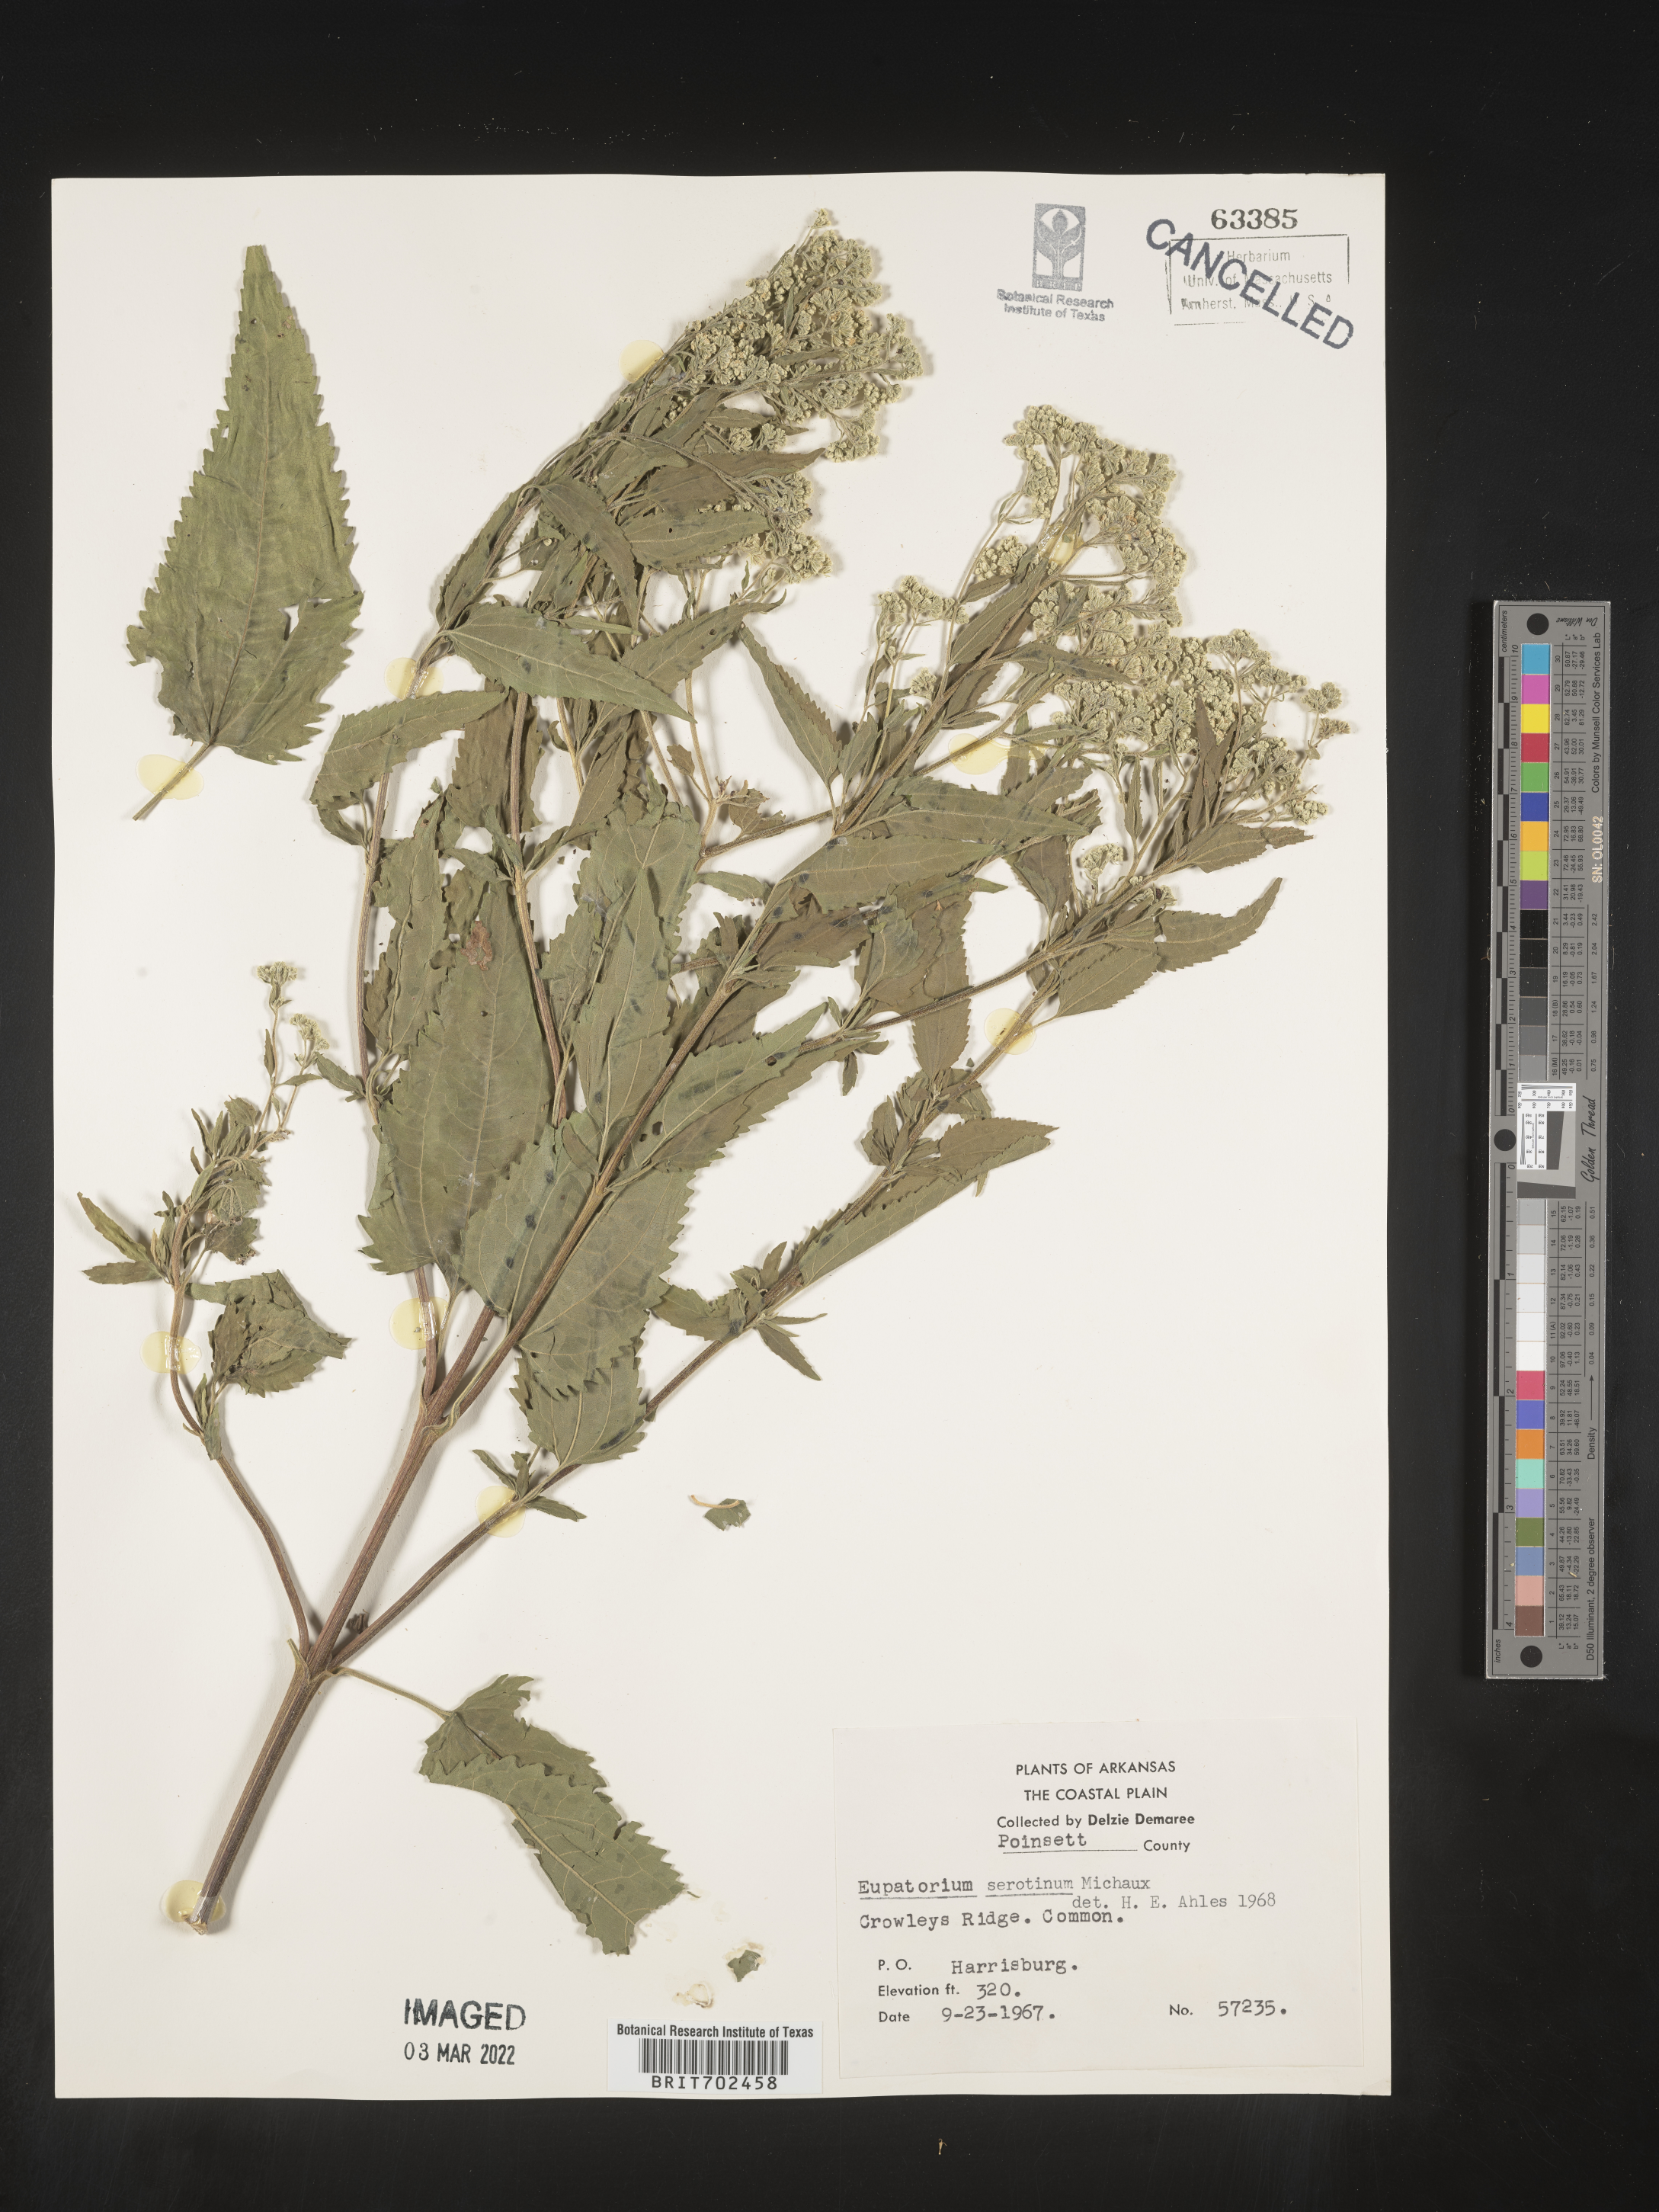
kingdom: Plantae
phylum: Tracheophyta
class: Magnoliopsida
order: Asterales
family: Asteraceae
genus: Eupatorium
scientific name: Eupatorium serotinum
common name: Late boneset
